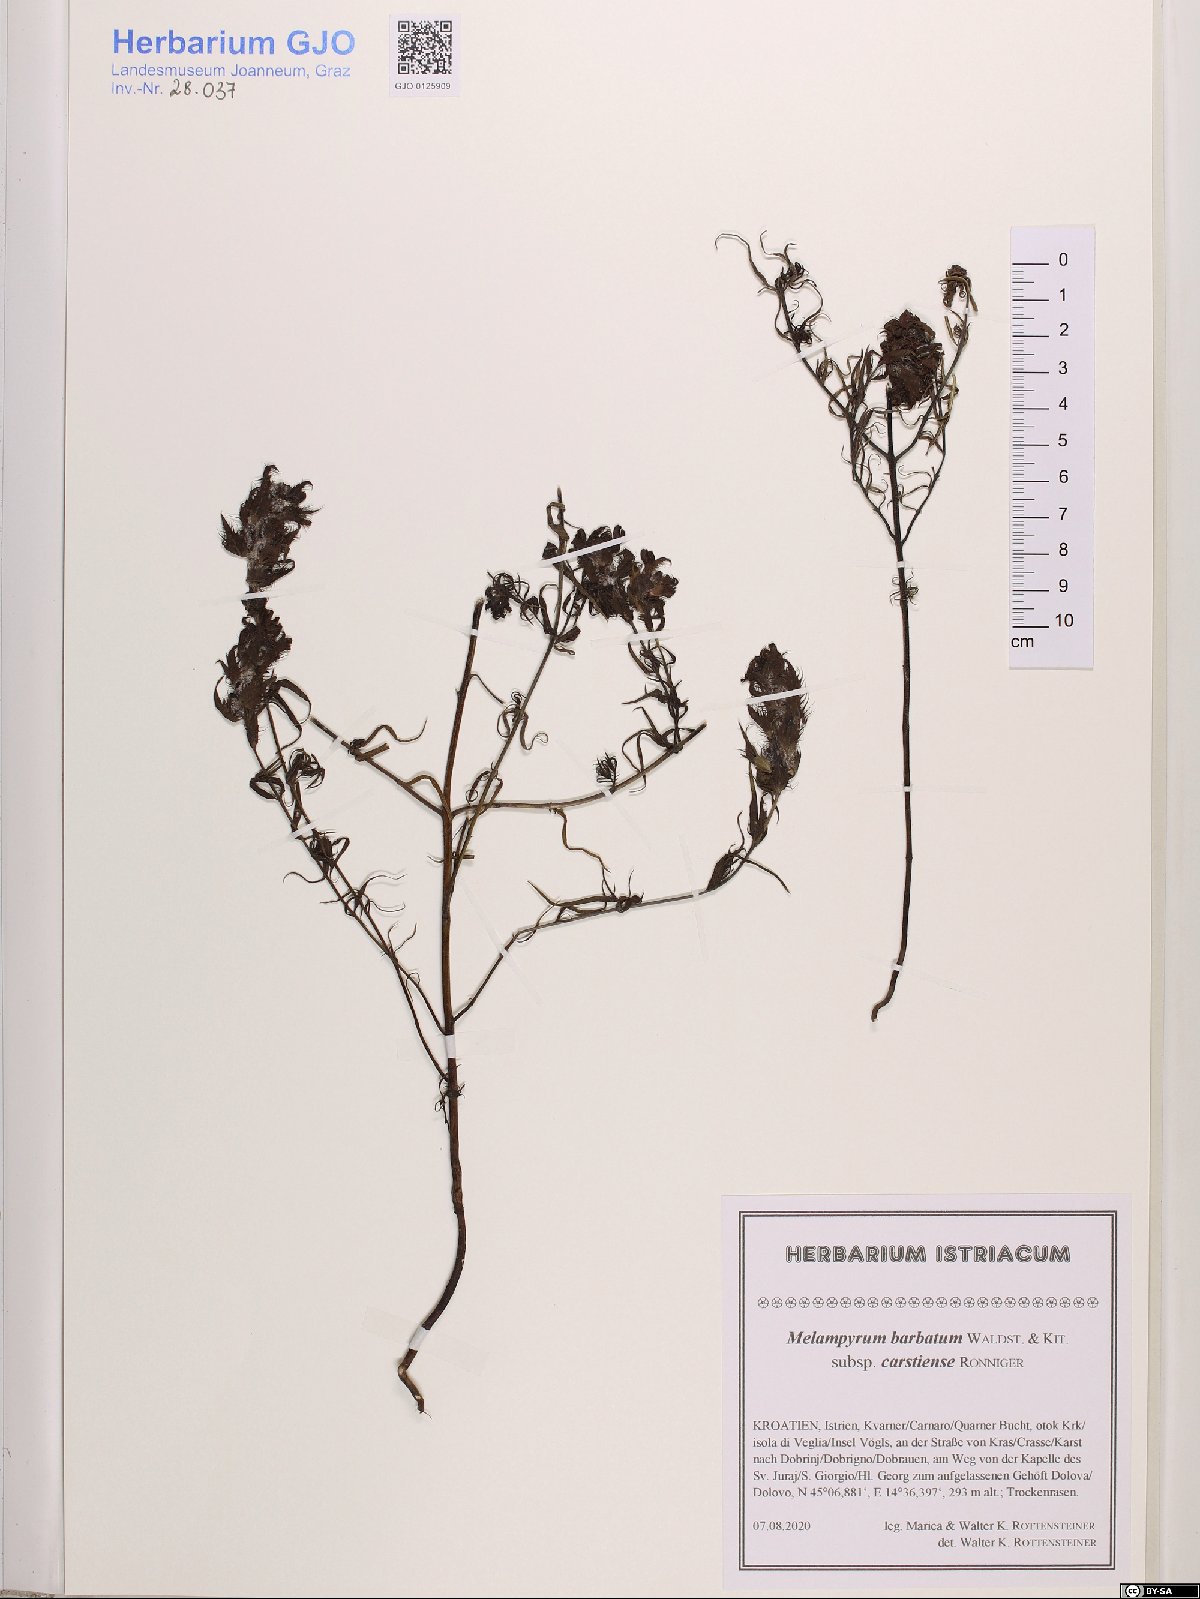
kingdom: Plantae
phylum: Tracheophyta
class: Magnoliopsida
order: Lamiales
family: Orobanchaceae
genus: Melampyrum
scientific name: Melampyrum barbatum
